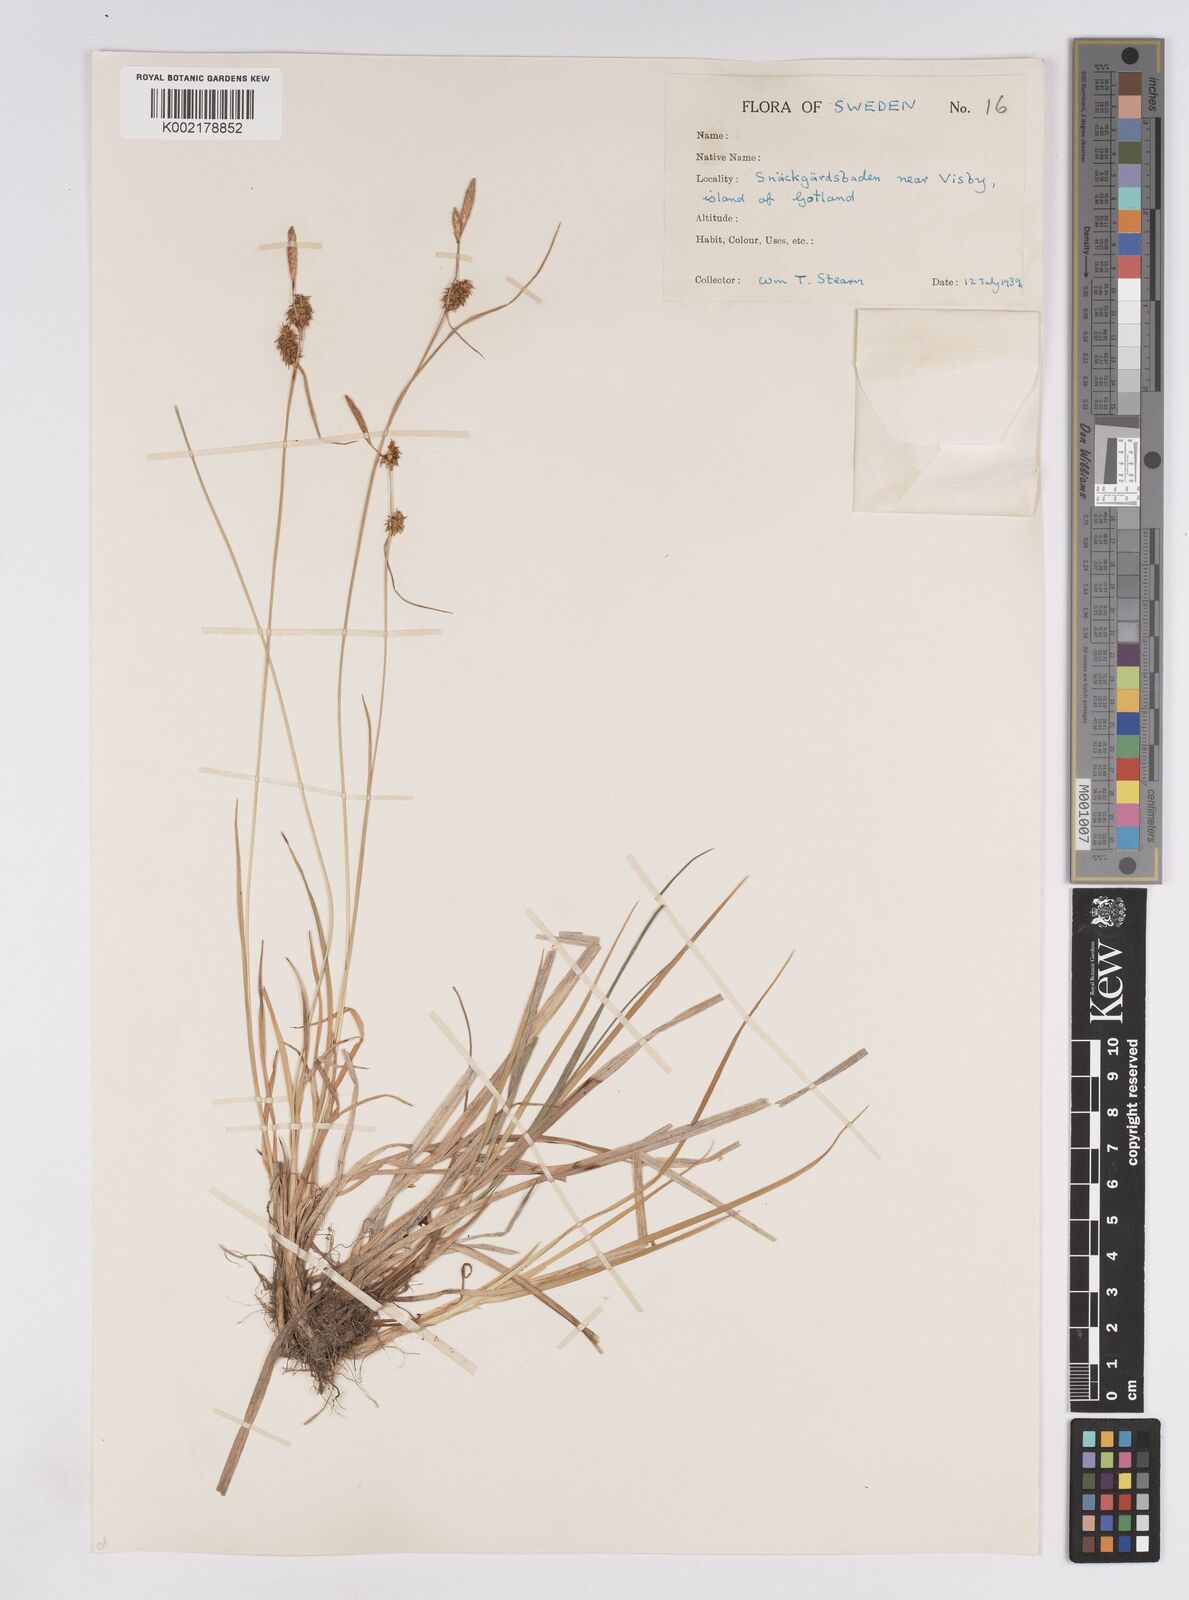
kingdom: Plantae
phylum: Tracheophyta
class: Liliopsida
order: Poales
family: Cyperaceae
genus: Carex
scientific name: Carex lepidocarpa
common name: Long-stalked yellow-sedge
